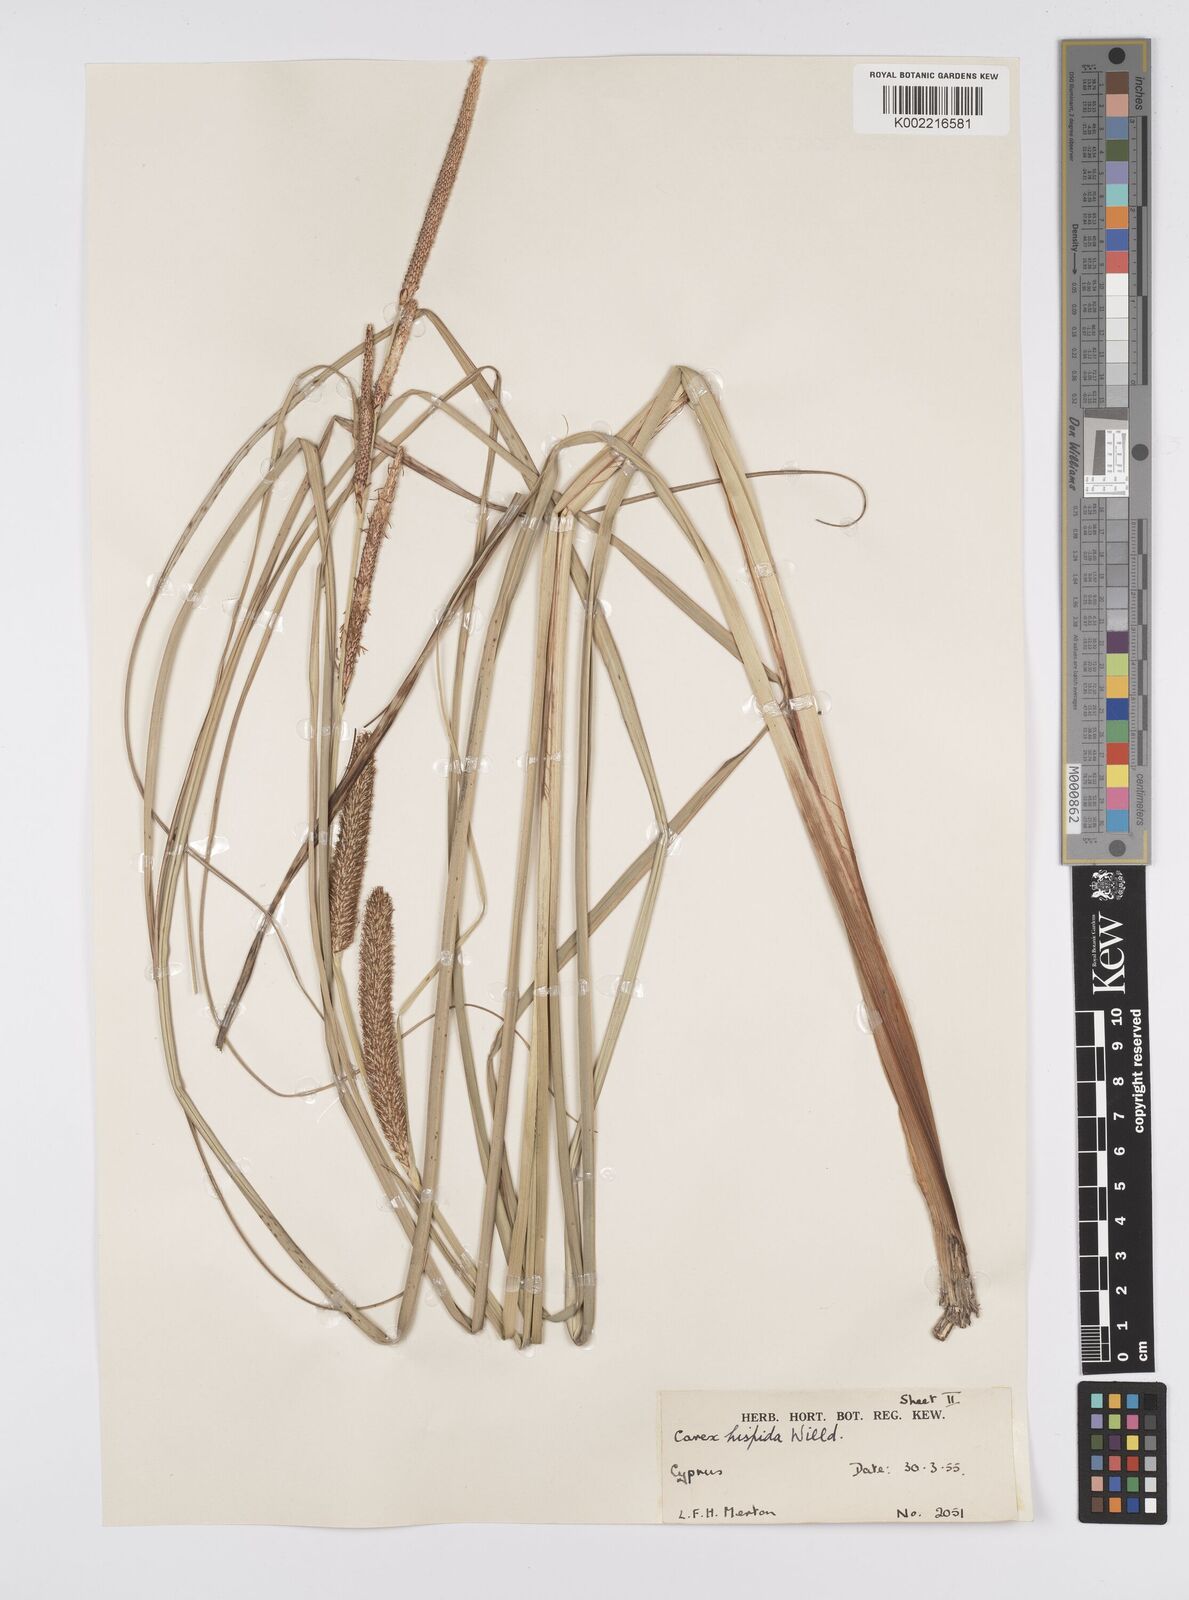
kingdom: Plantae
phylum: Tracheophyta
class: Liliopsida
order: Poales
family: Cyperaceae
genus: Carex
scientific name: Carex hispida
